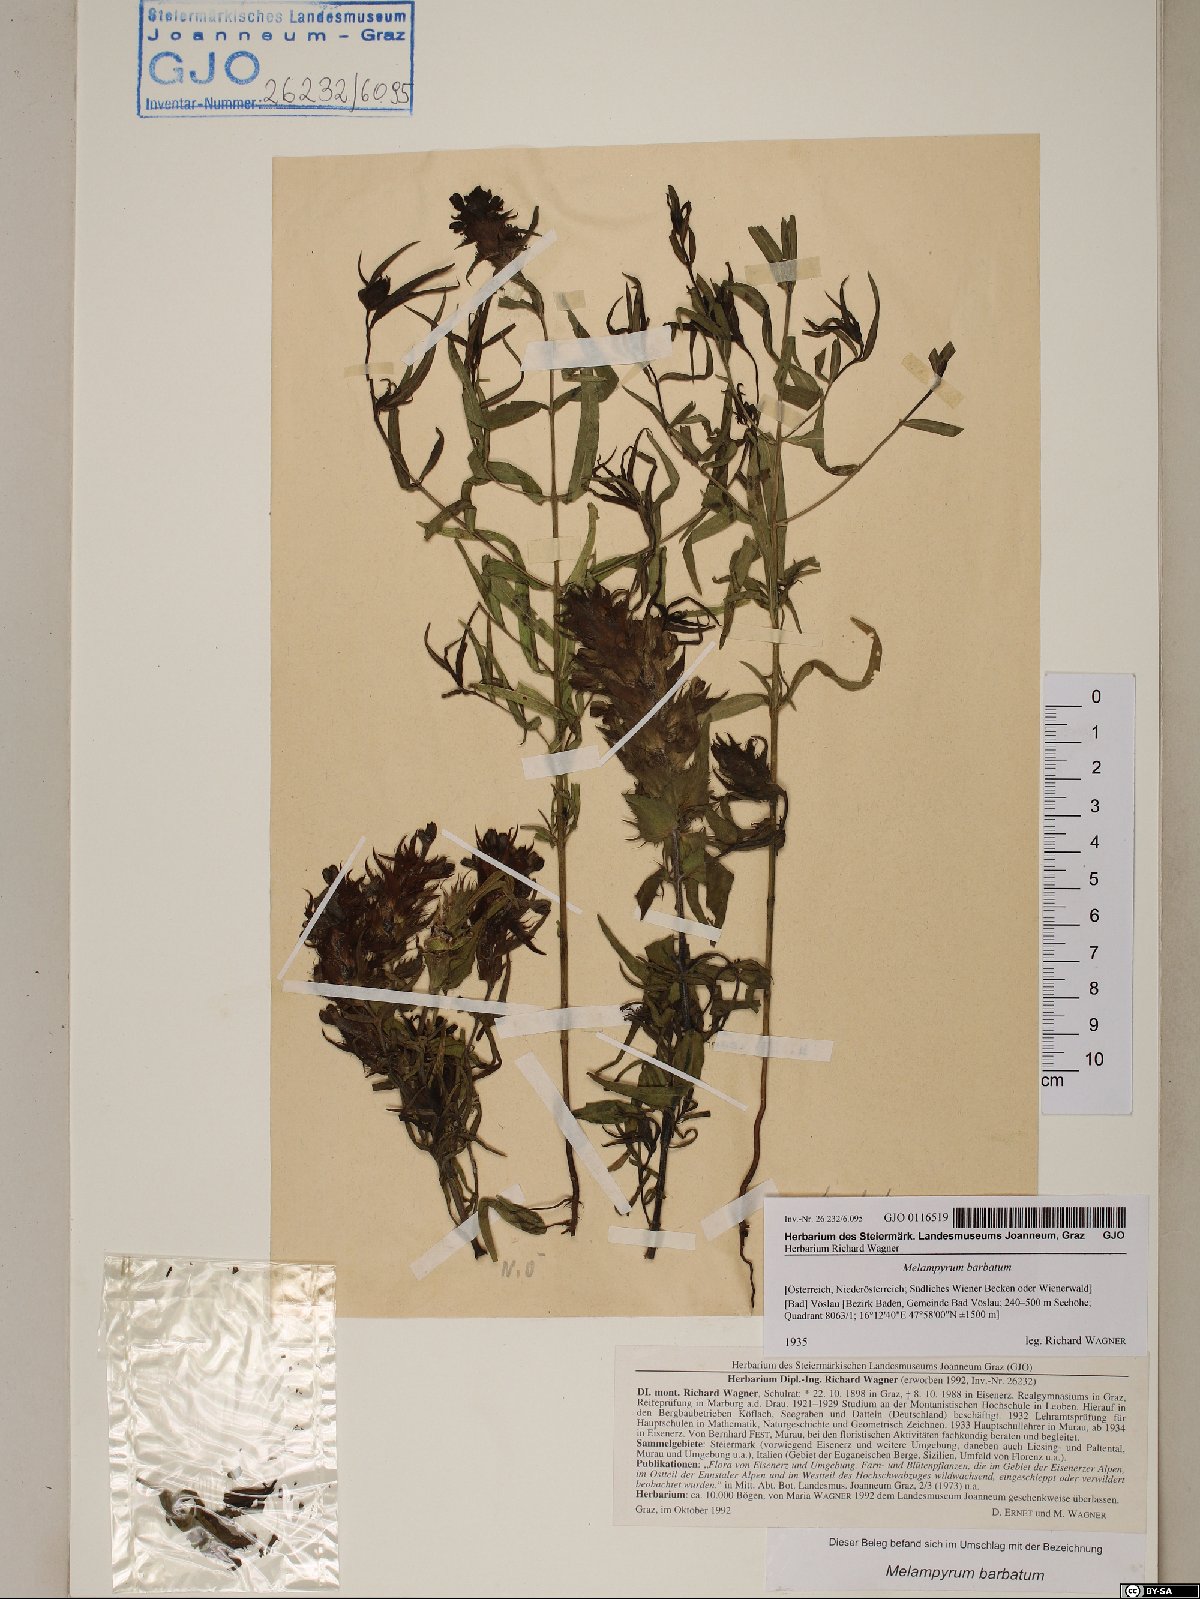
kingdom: Plantae
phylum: Tracheophyta
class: Magnoliopsida
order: Lamiales
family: Orobanchaceae
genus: Melampyrum
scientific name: Melampyrum barbatum
